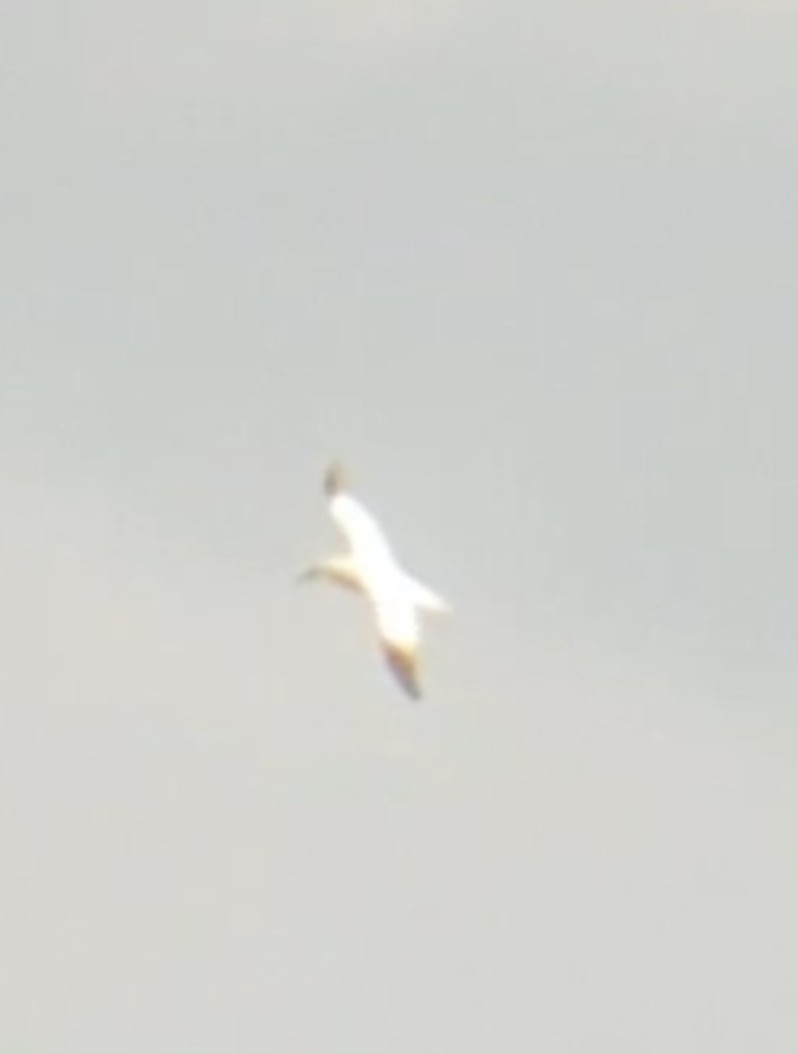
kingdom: Animalia
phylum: Chordata
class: Aves
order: Suliformes
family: Sulidae
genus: Morus
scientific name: Morus bassanus
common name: Sule
